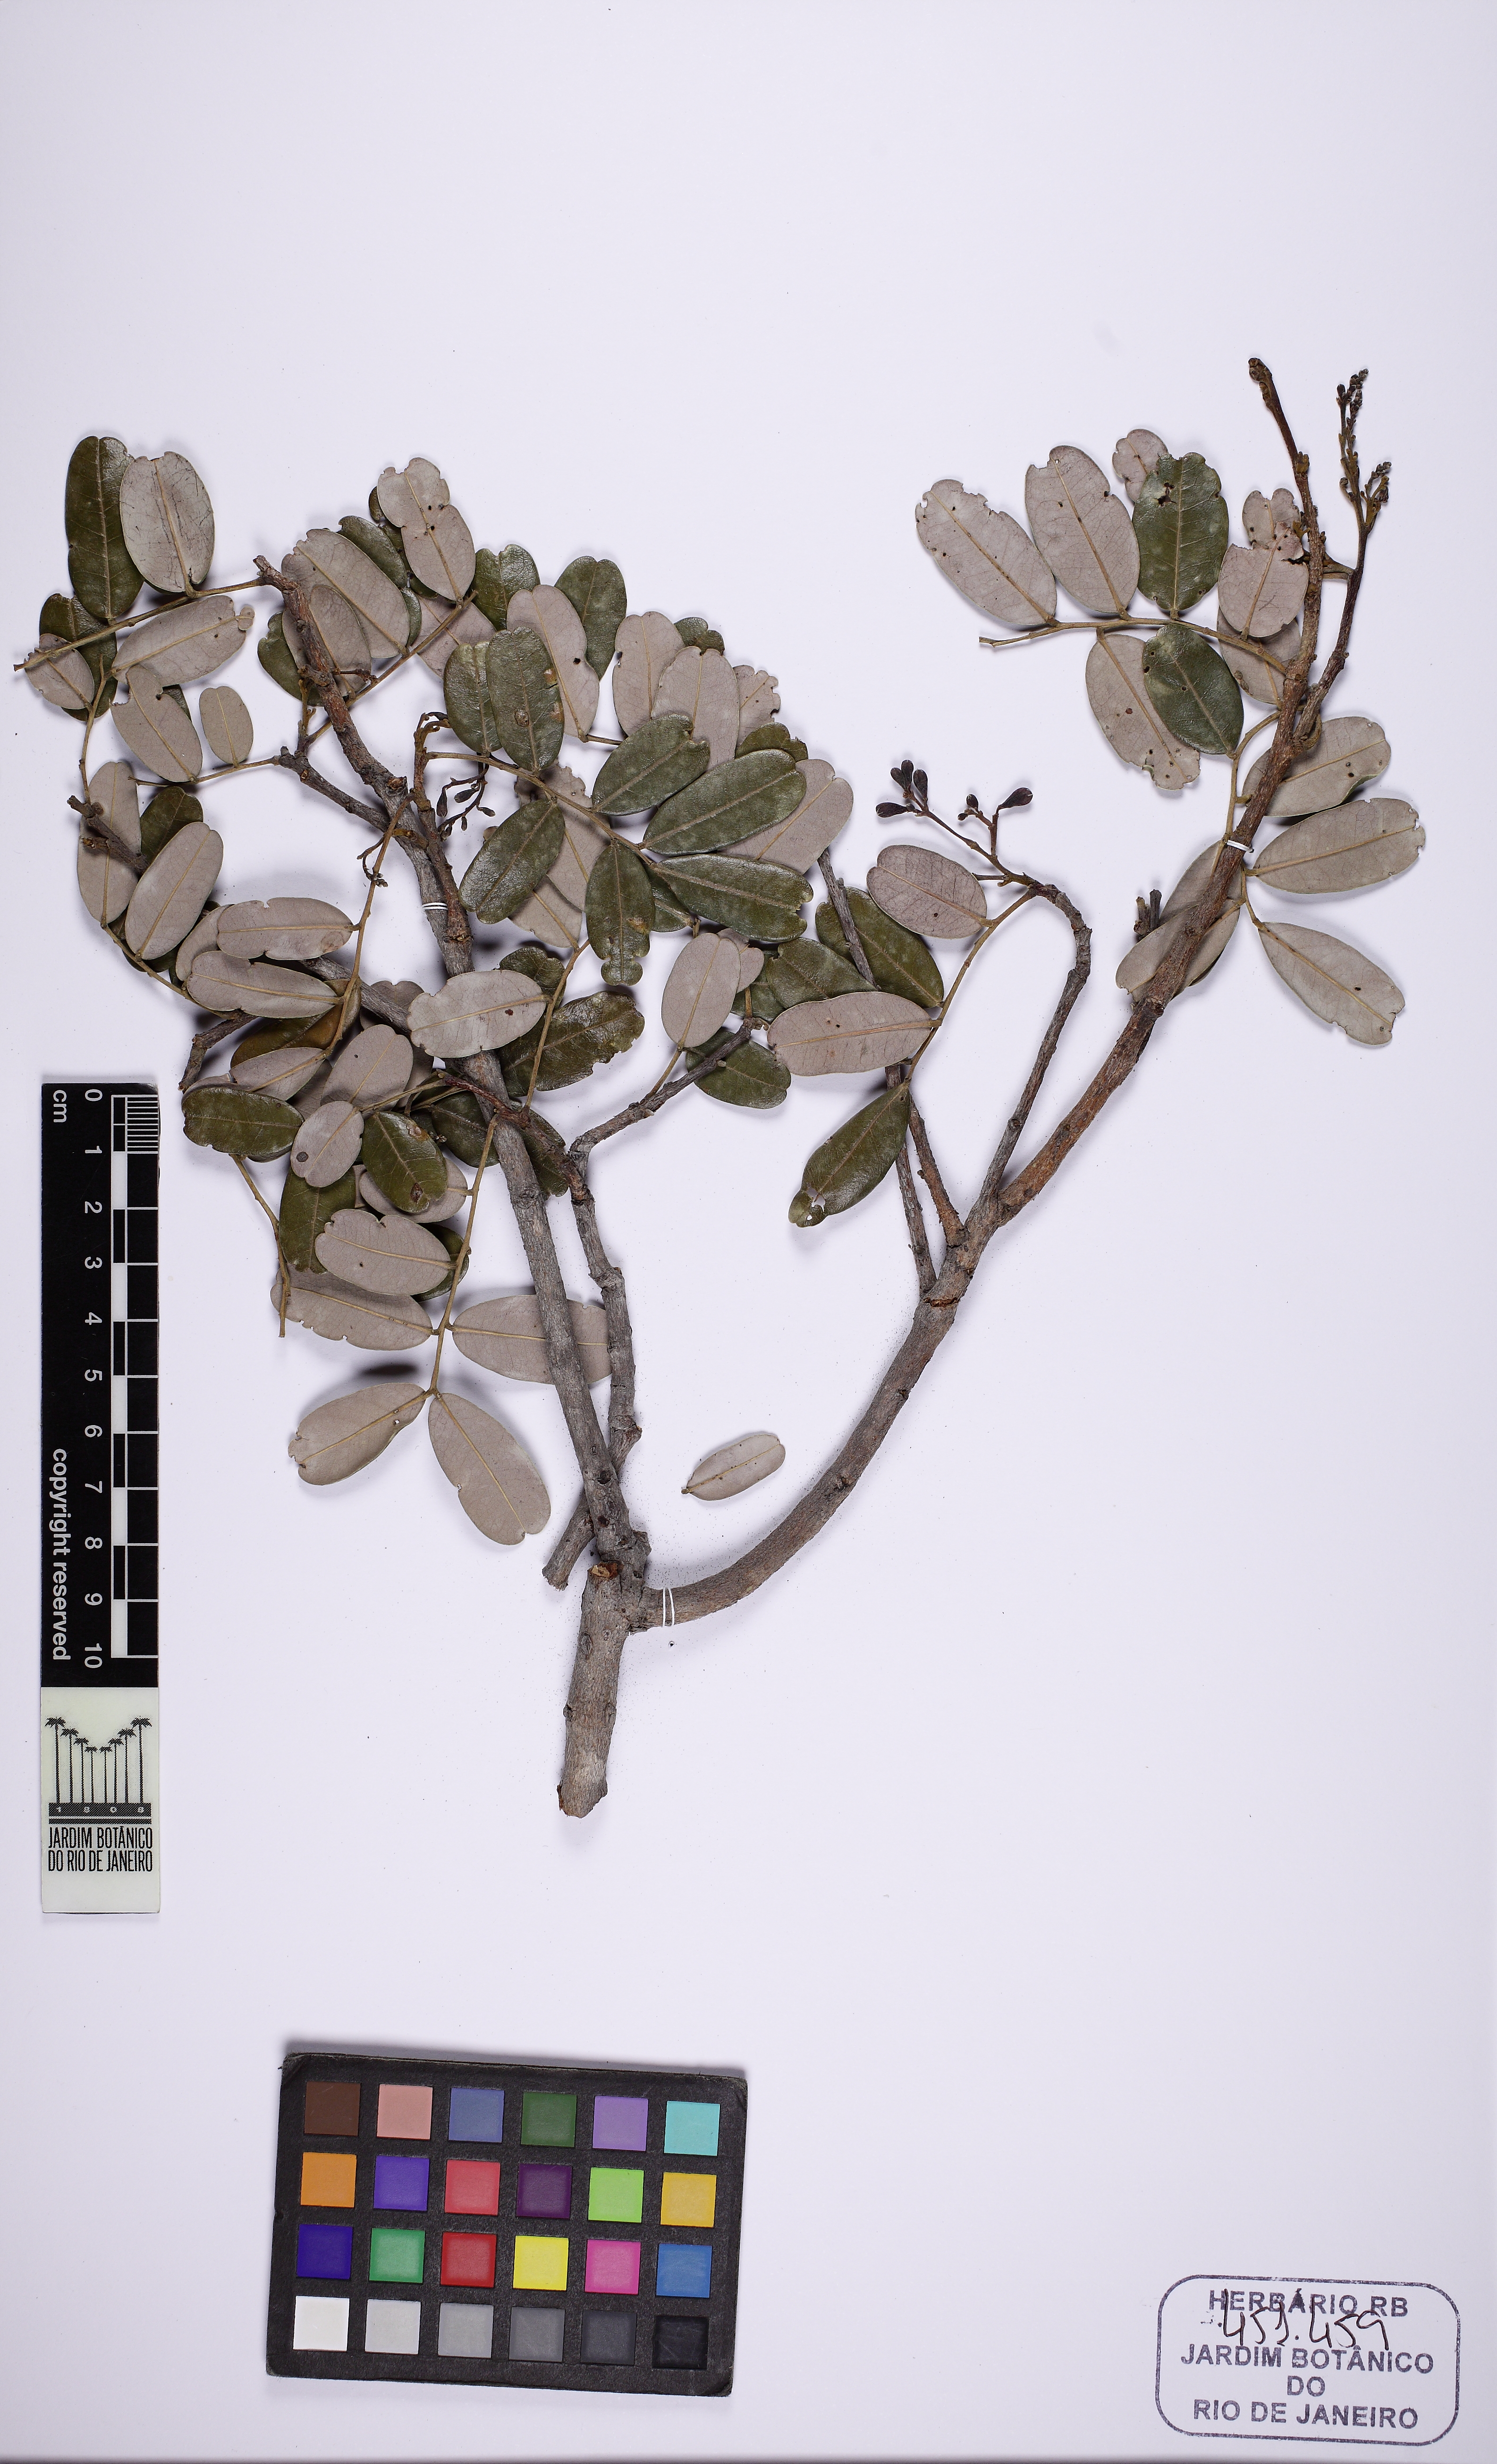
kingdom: Plantae
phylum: Tracheophyta
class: Magnoliopsida
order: Fabales
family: Fabaceae
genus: Bowdichia
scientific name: Bowdichia virgilioides
